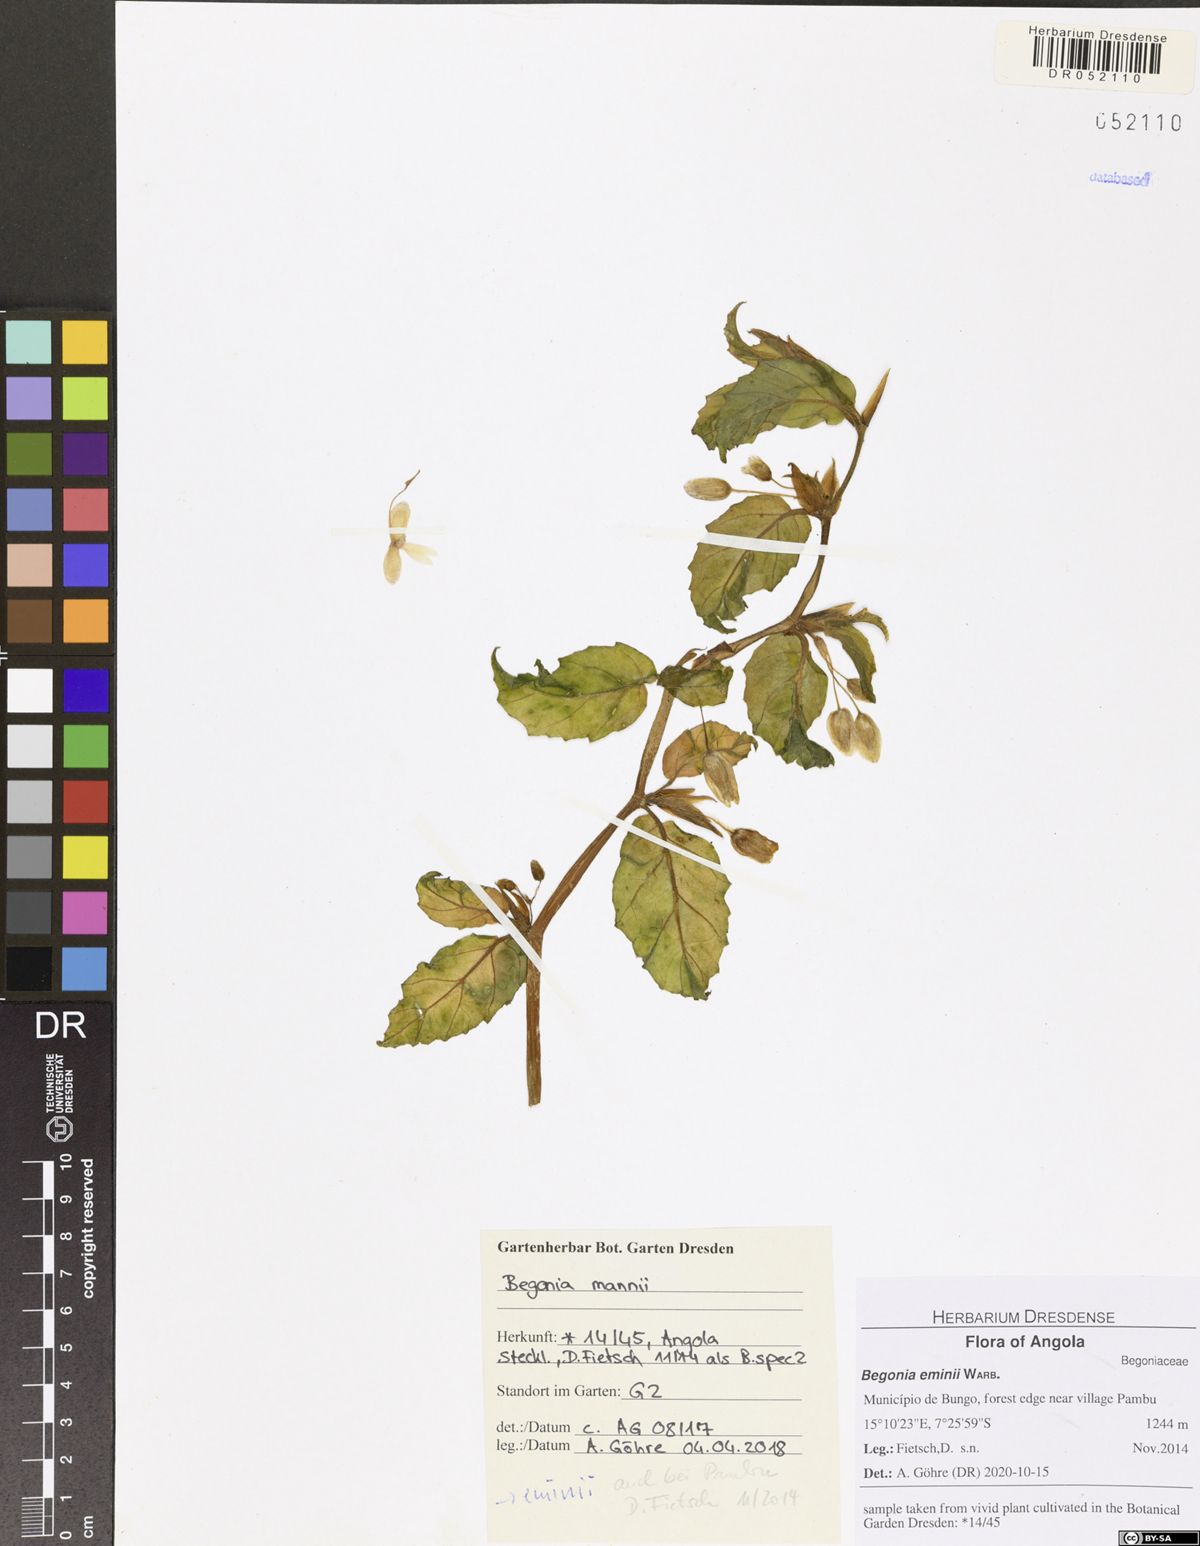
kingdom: Plantae
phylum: Tracheophyta
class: Magnoliopsida
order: Cucurbitales
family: Begoniaceae
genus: Begonia
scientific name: Begonia eminii
